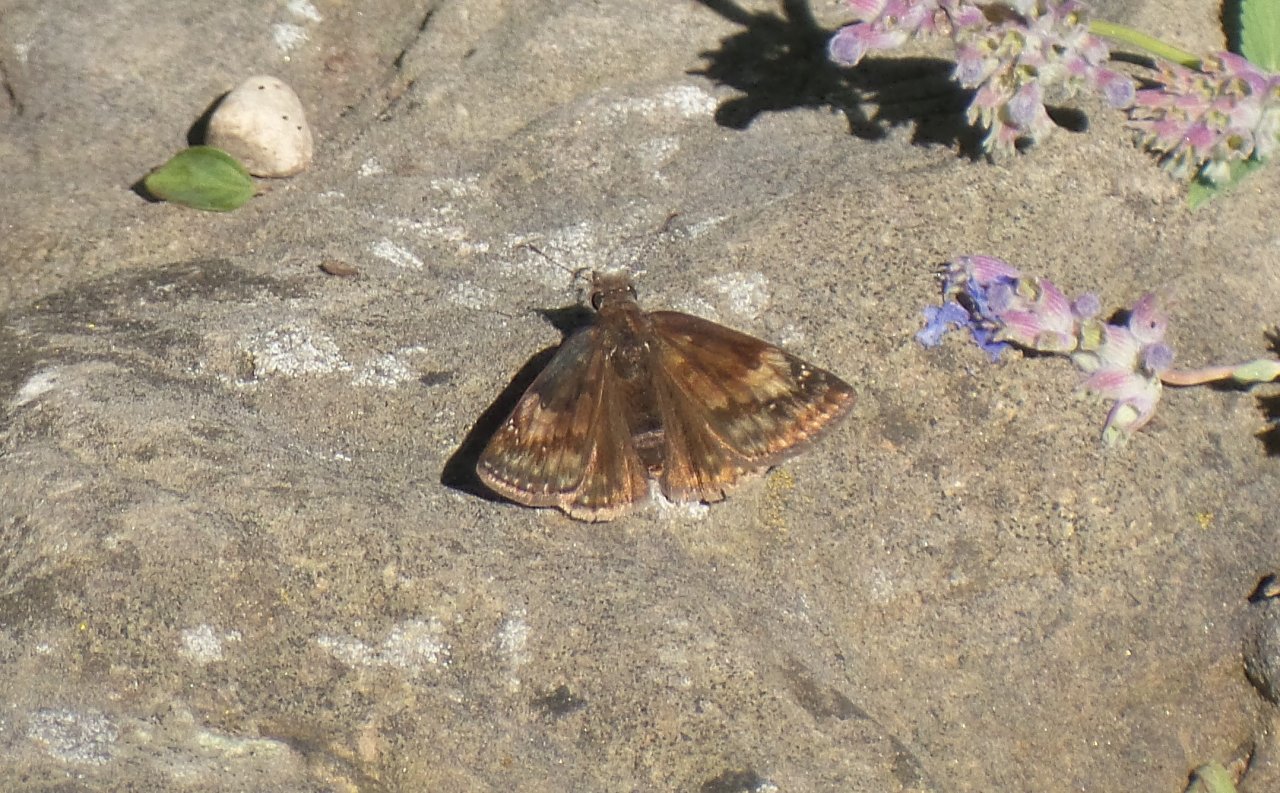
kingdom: Animalia
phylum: Arthropoda
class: Insecta
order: Lepidoptera
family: Hesperiidae
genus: Gesta
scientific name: Gesta
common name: Wild Indigo Duskywing
